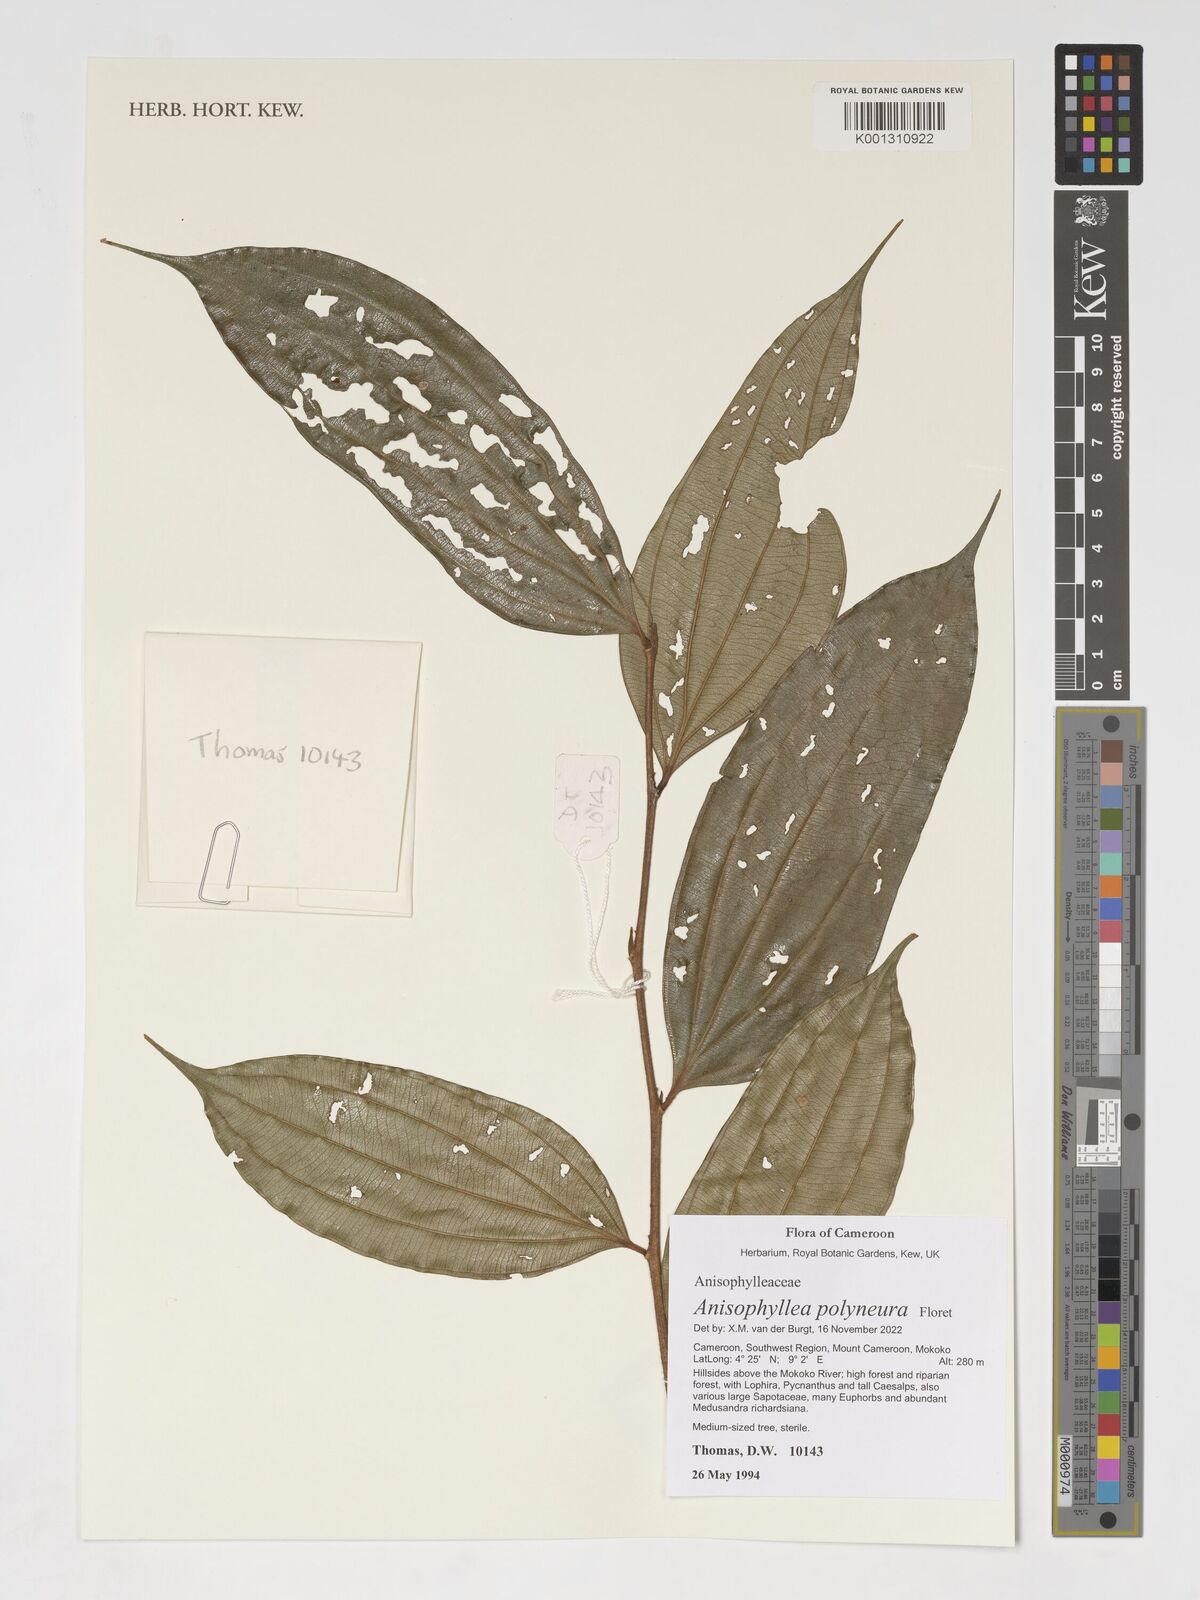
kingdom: Plantae
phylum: Tracheophyta
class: Magnoliopsida
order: Cucurbitales
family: Anisophylleaceae
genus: Anisophyllea
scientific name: Anisophyllea polyneura
